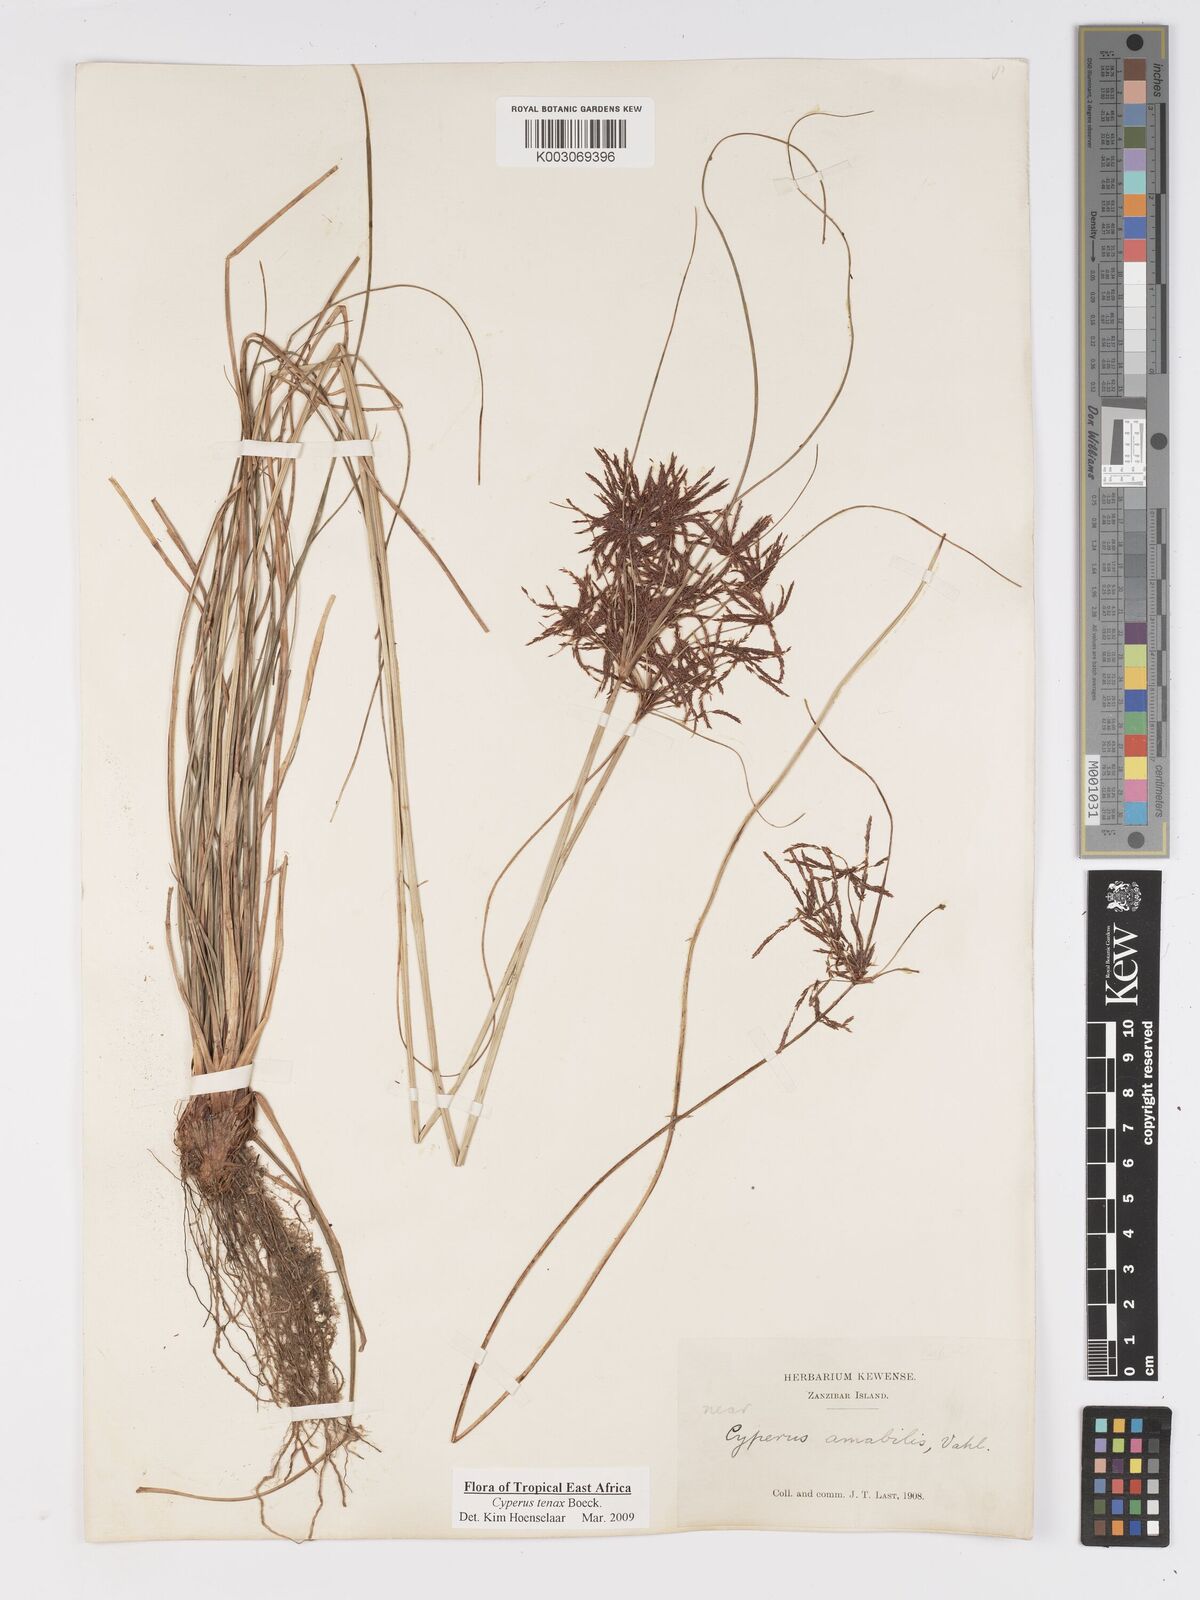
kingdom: Plantae
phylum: Tracheophyta
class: Liliopsida
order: Poales
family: Cyperaceae
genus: Cyperus
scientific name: Cyperus tenax
